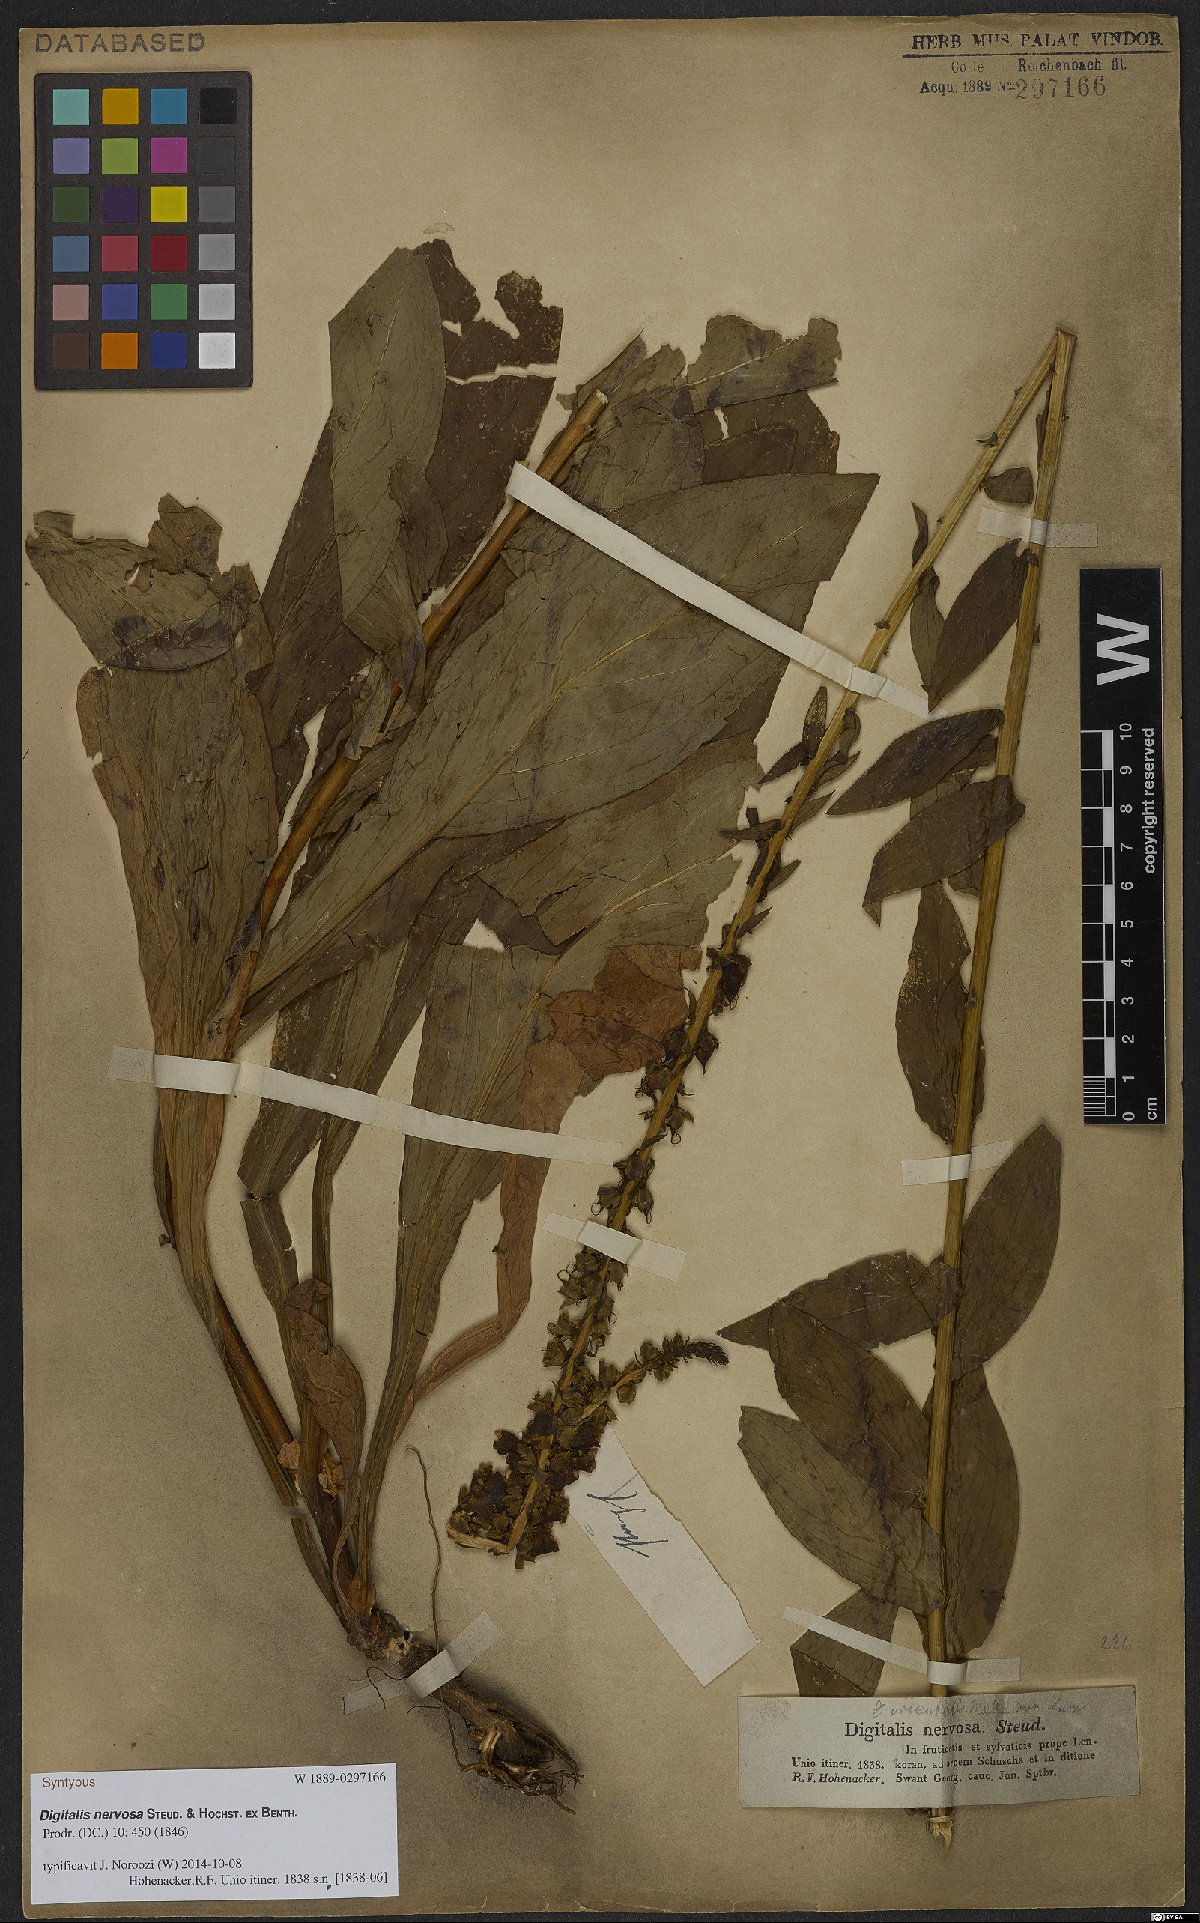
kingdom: Plantae
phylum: Tracheophyta
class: Magnoliopsida
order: Lamiales
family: Plantaginaceae
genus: Digitalis
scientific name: Digitalis nervosa
